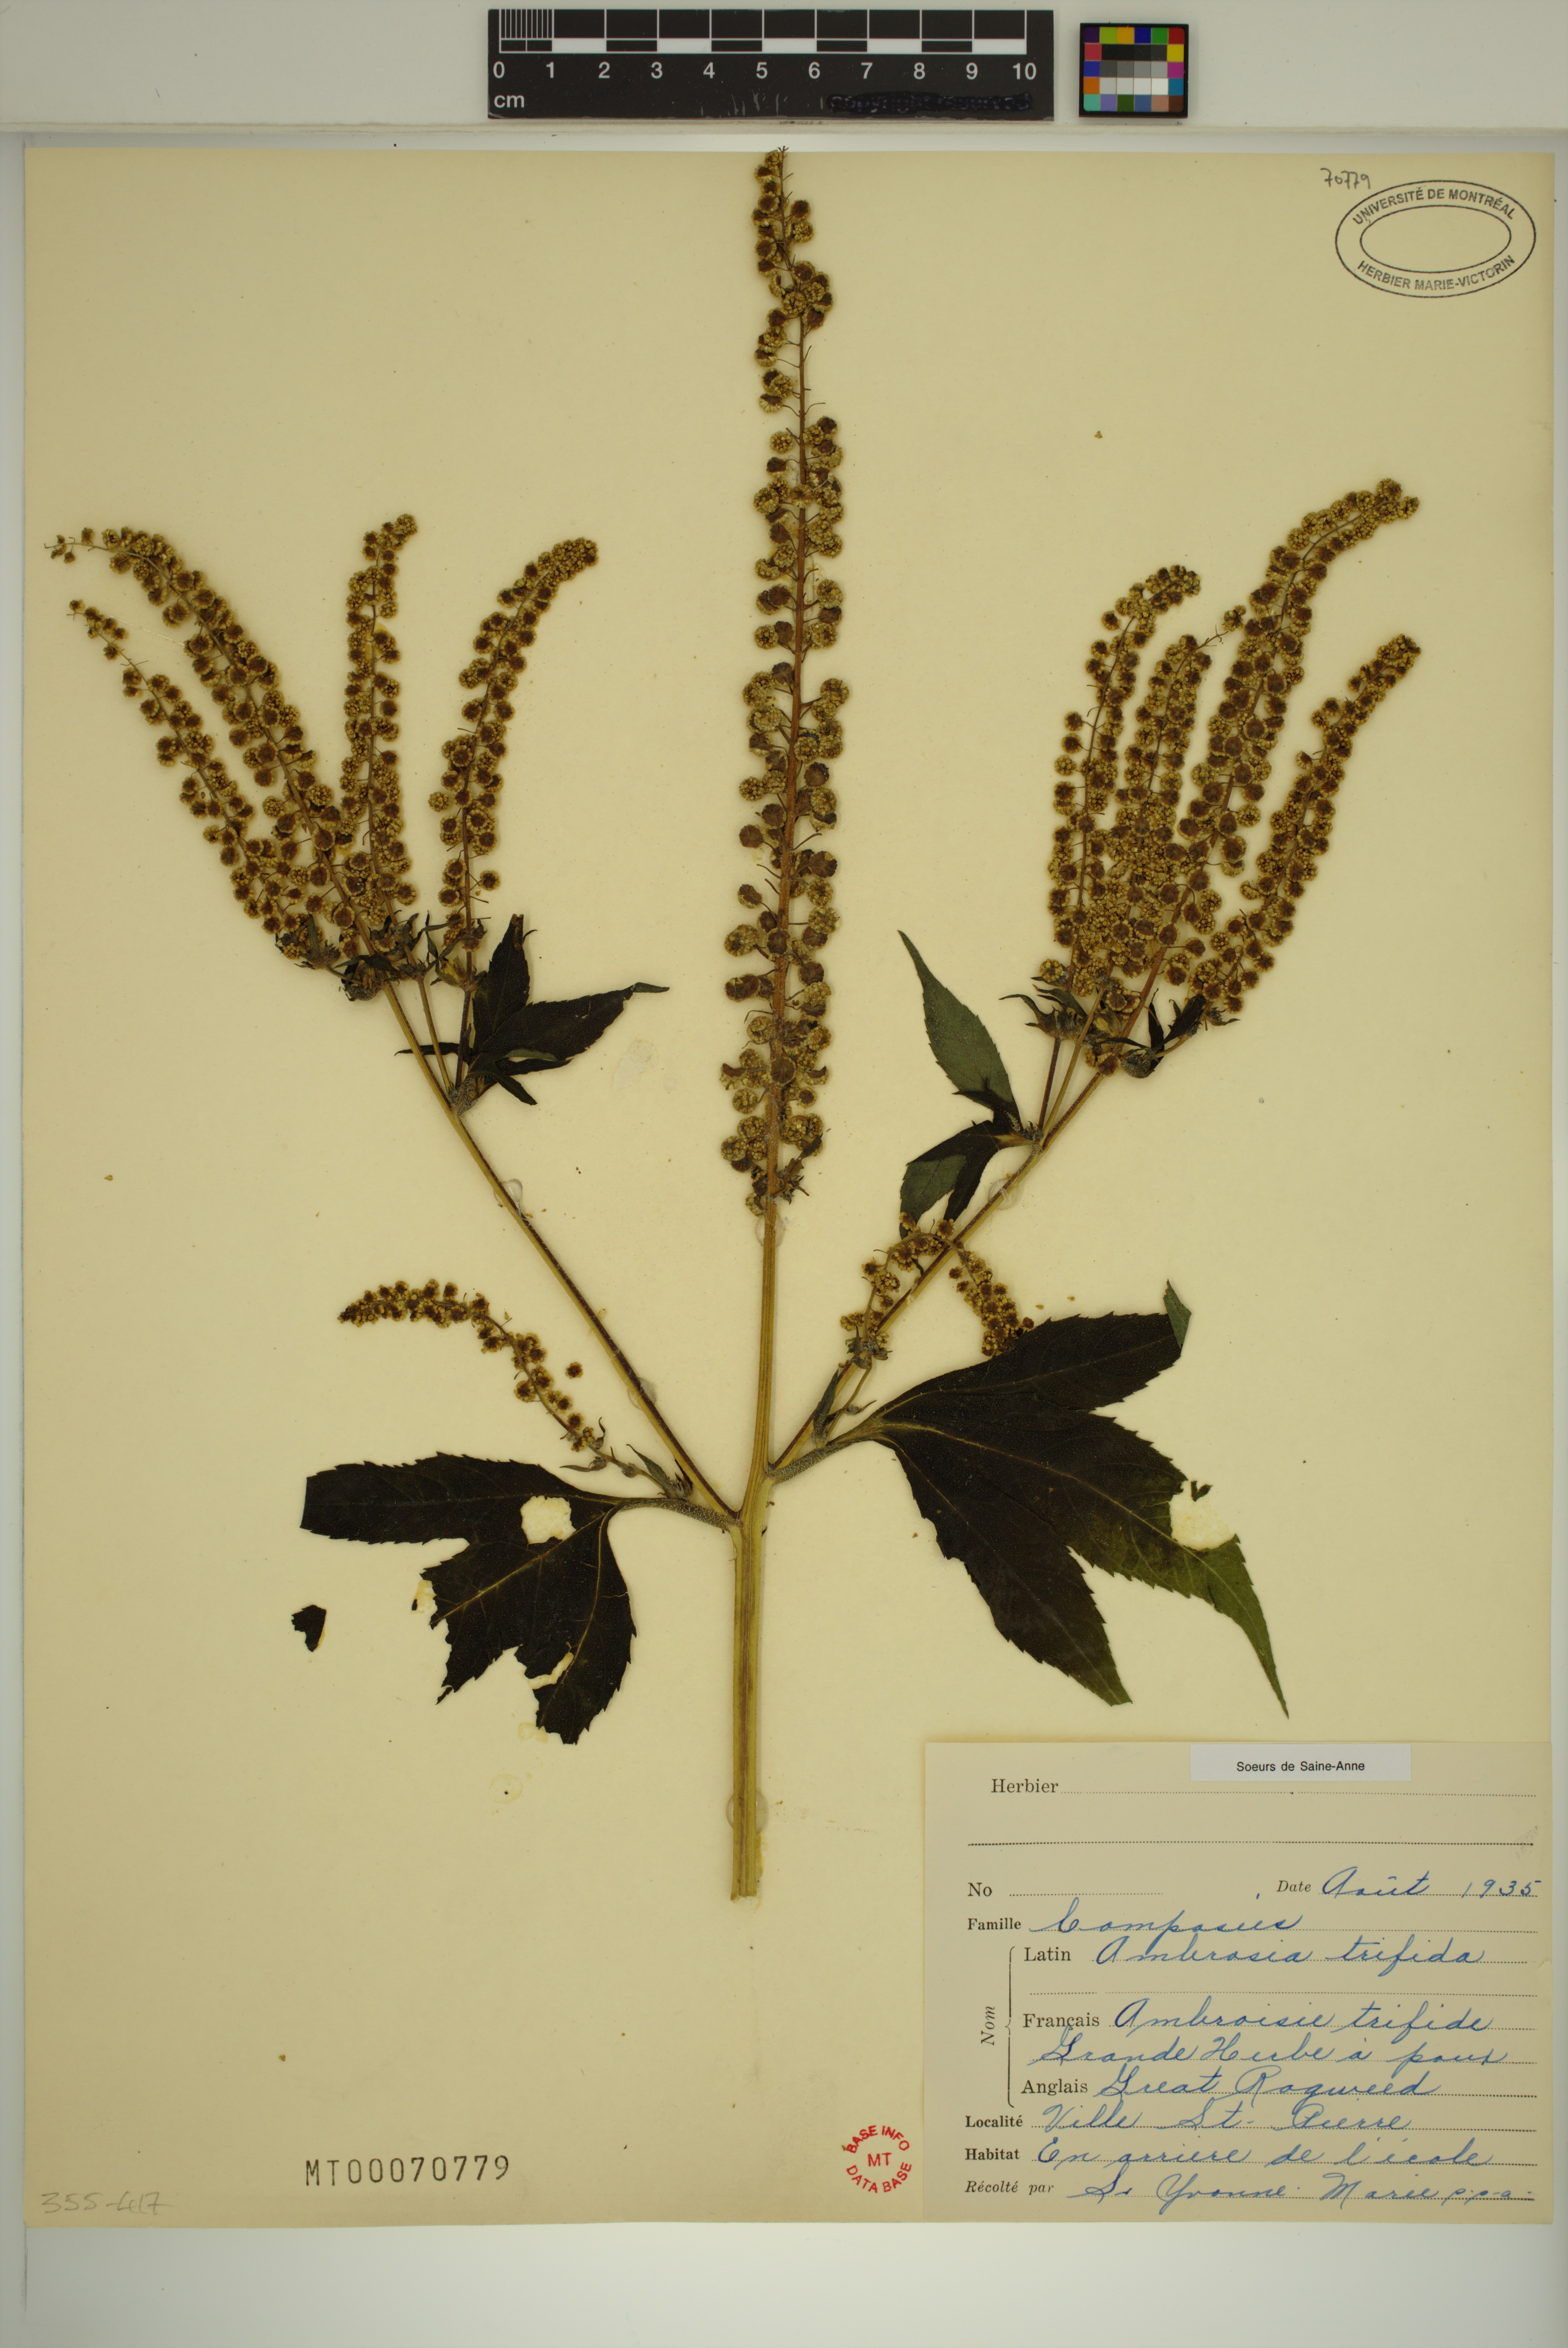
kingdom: Plantae
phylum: Tracheophyta
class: Magnoliopsida
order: Asterales
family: Asteraceae
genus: Ambrosia
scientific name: Ambrosia trifida
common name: Giant ragweed
